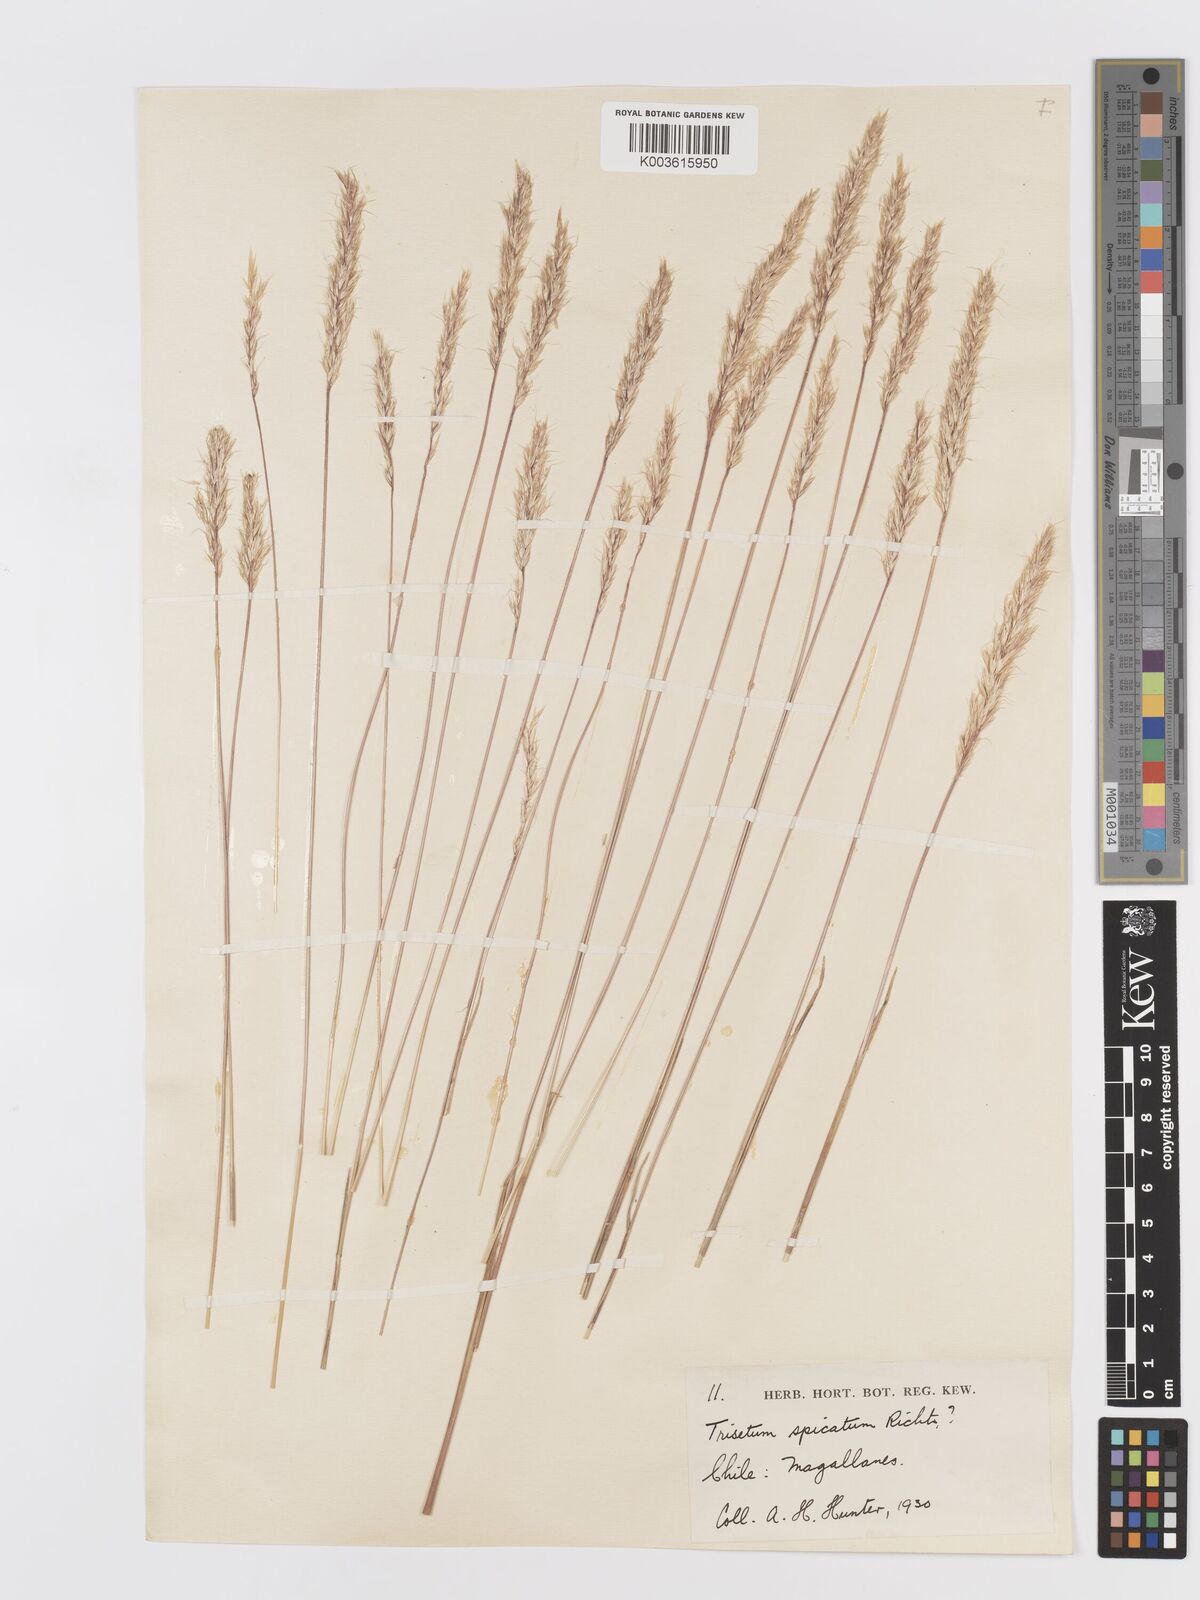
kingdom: Plantae
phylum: Tracheophyta
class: Liliopsida
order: Poales
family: Poaceae
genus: Koeleria
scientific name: Koeleria spicata
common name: Mountain trisetum
